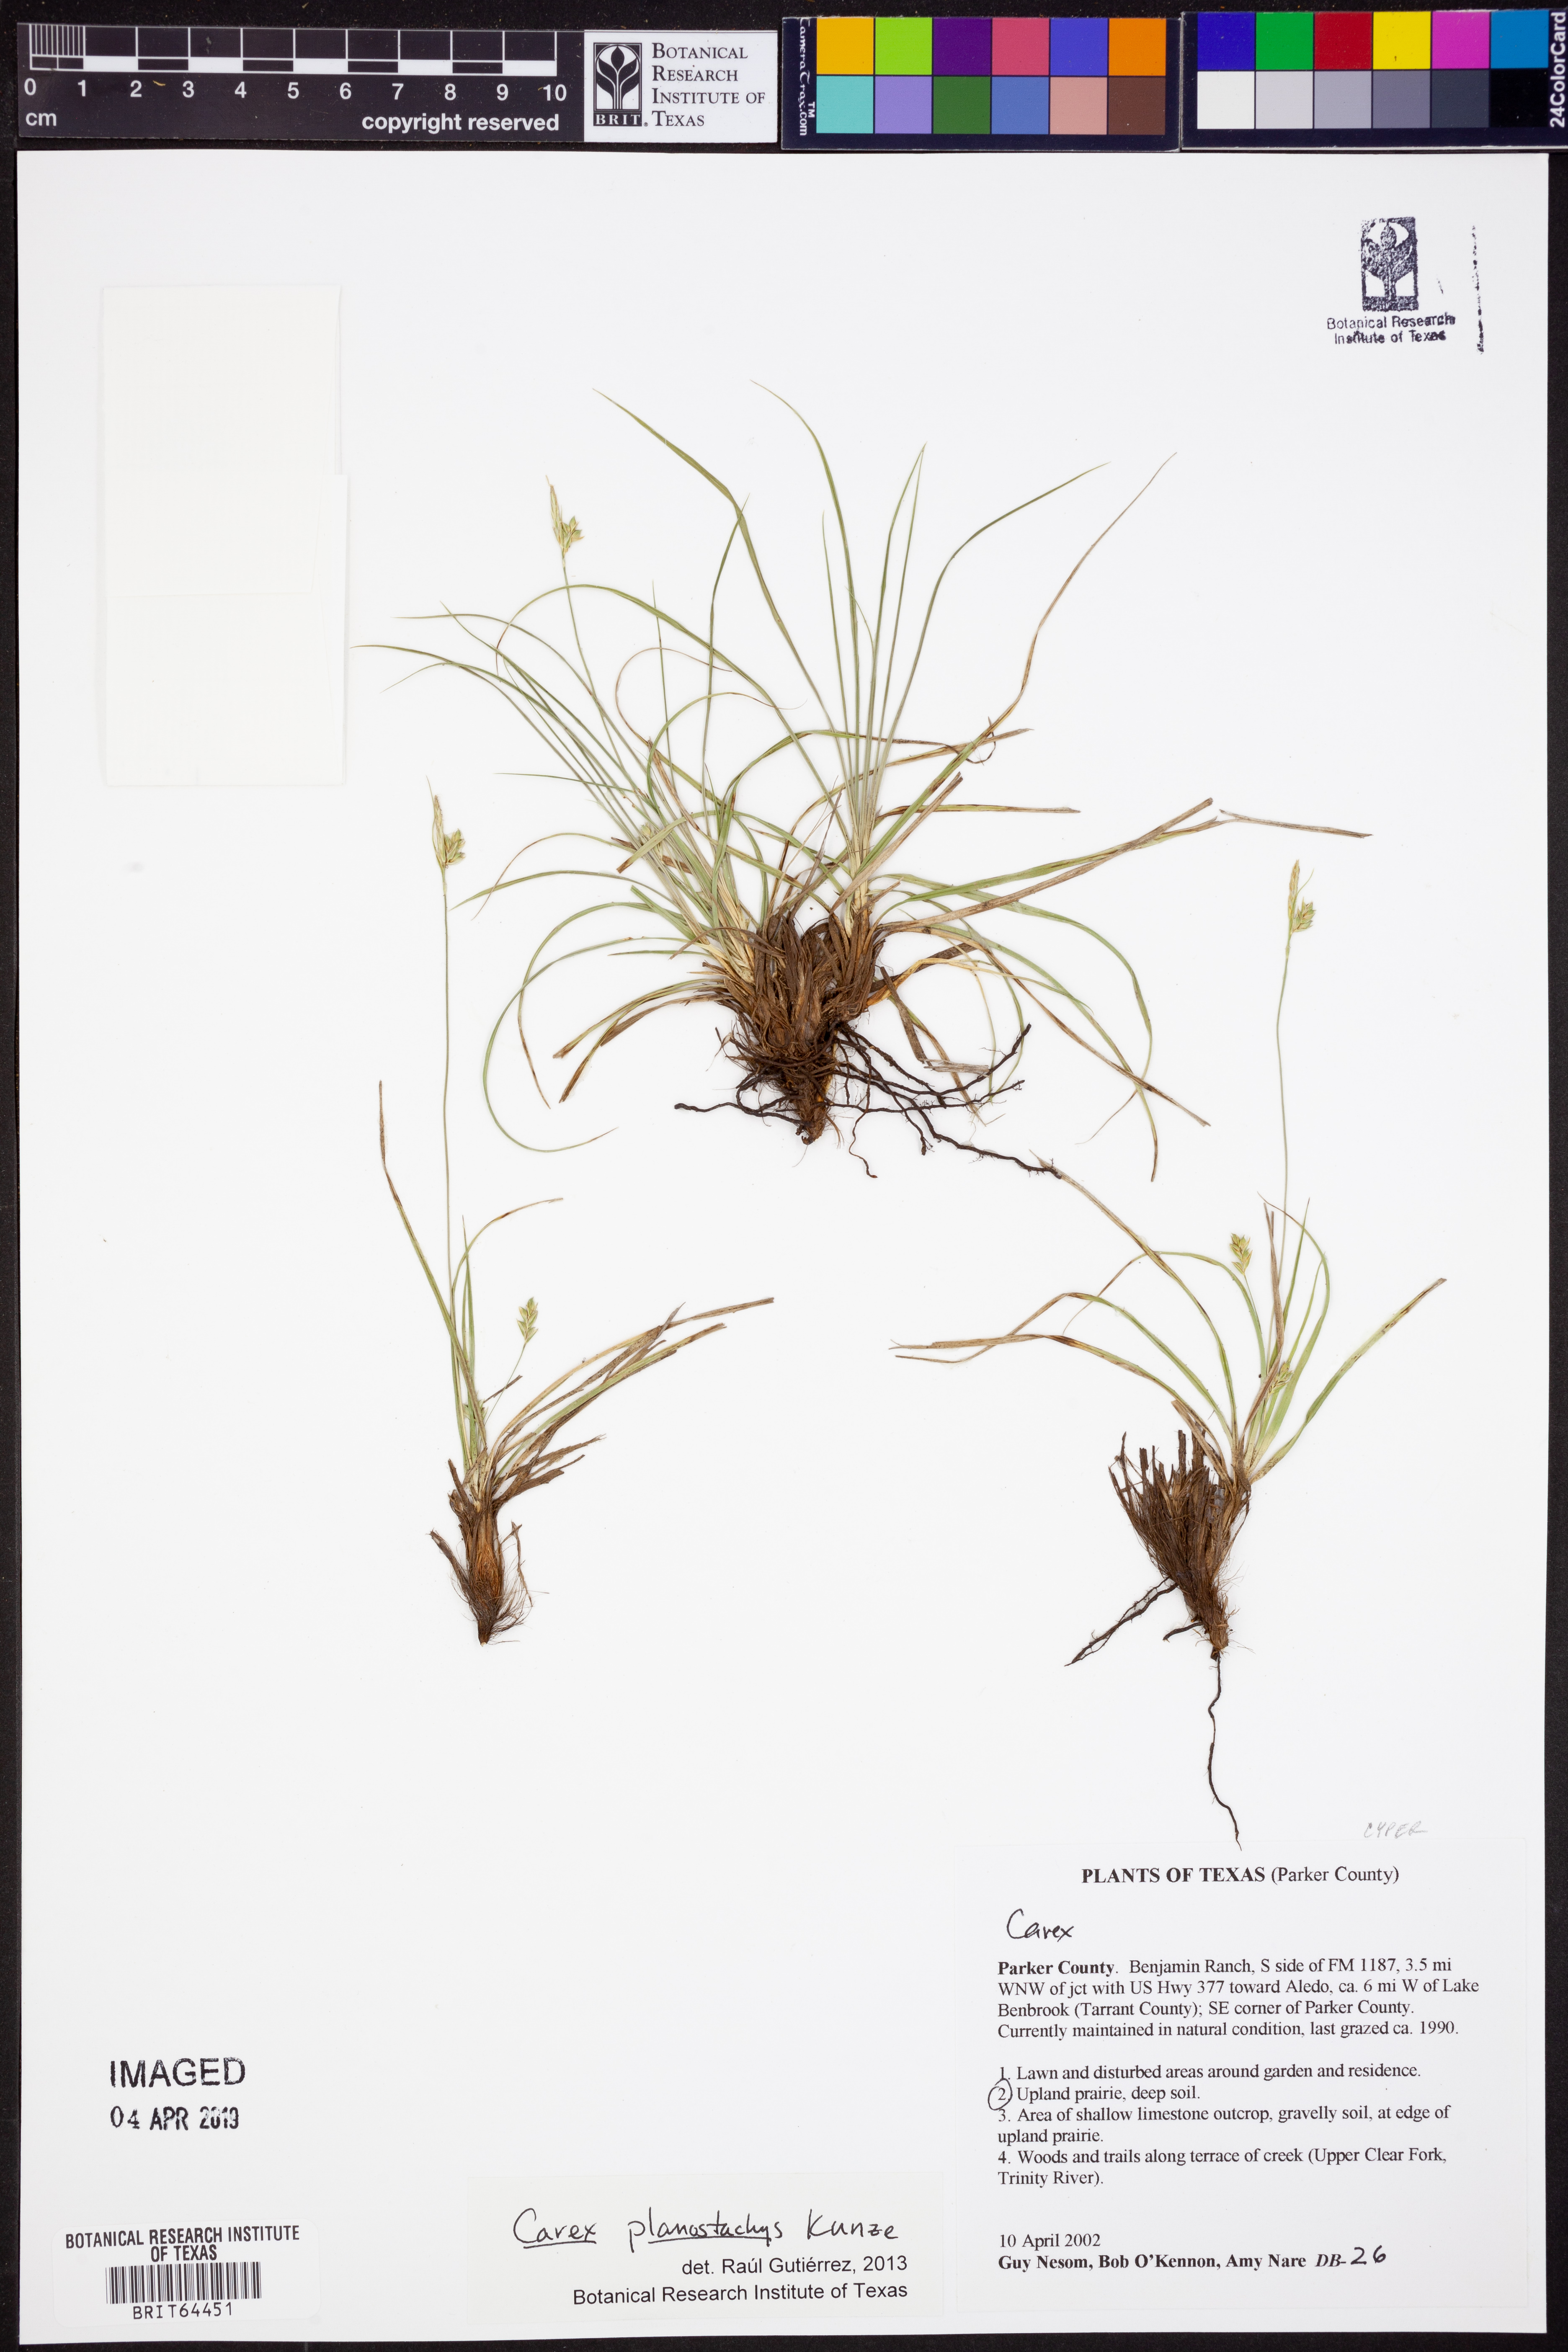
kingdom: Plantae
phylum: Tracheophyta
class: Liliopsida
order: Poales
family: Cyperaceae
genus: Carex
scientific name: Carex planostachys
